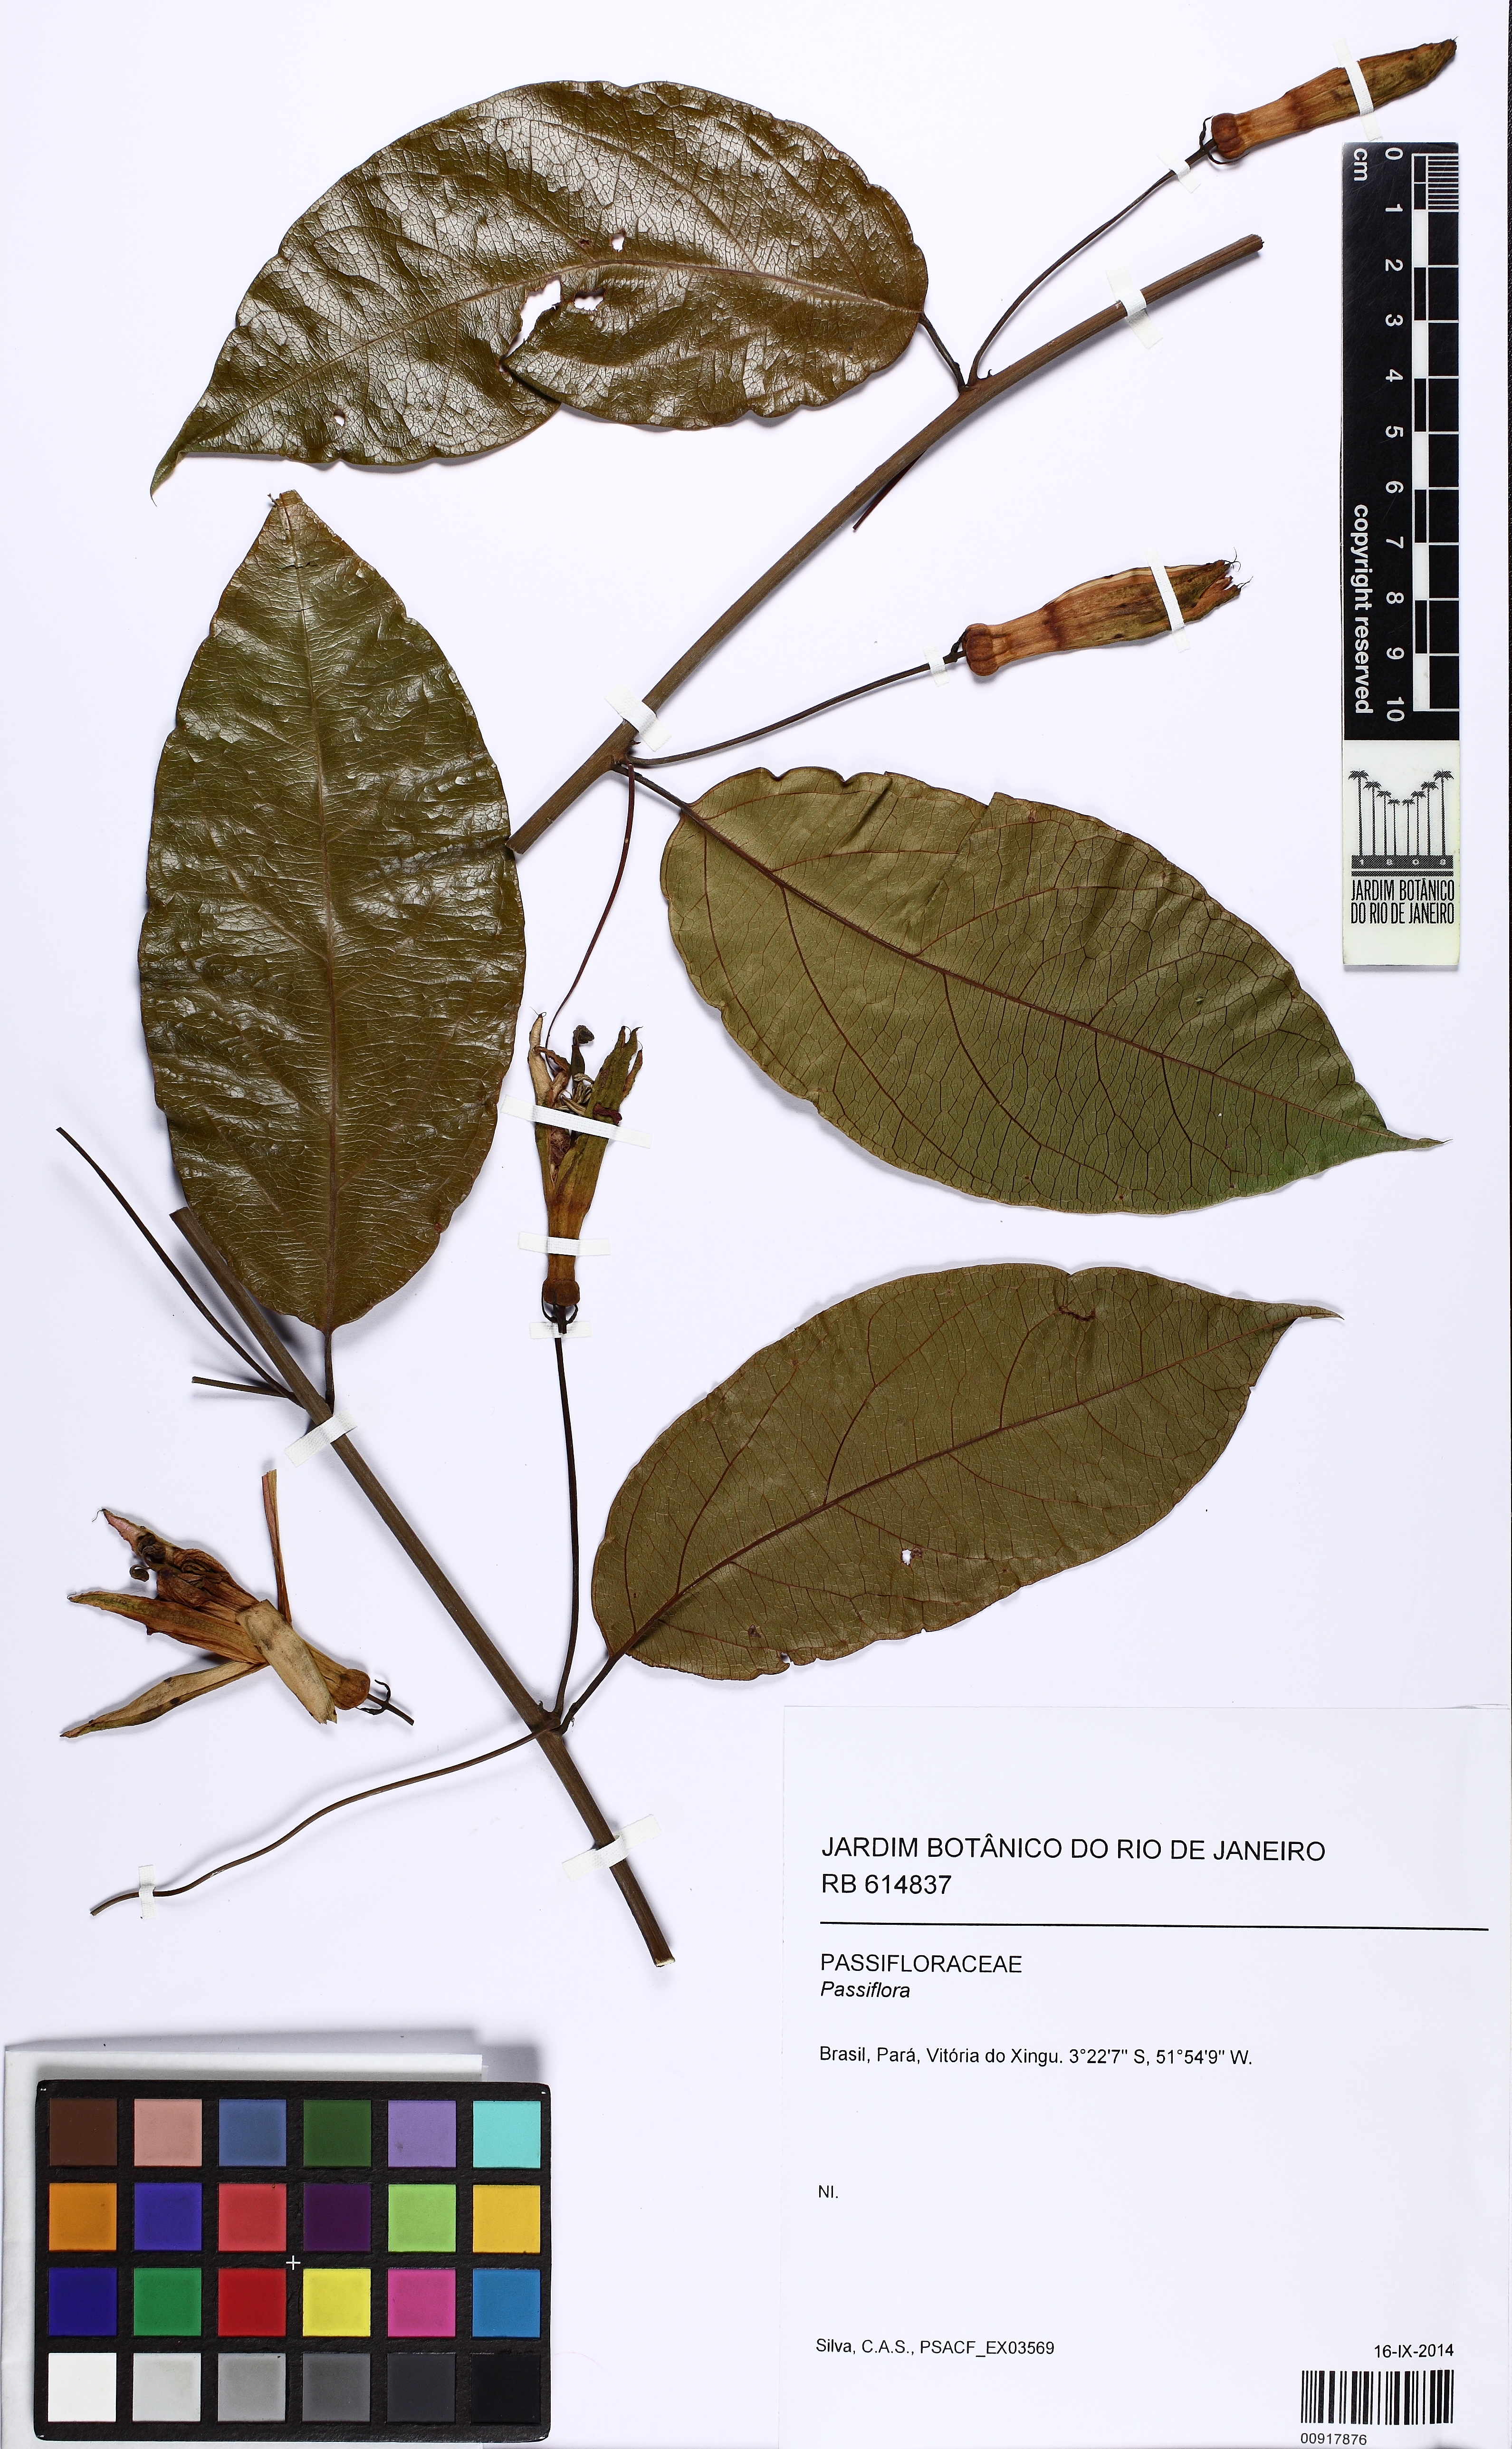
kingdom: Plantae
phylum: Tracheophyta
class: Magnoliopsida
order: Malpighiales
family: Passifloraceae
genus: Passiflora
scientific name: Passiflora glandulosa
